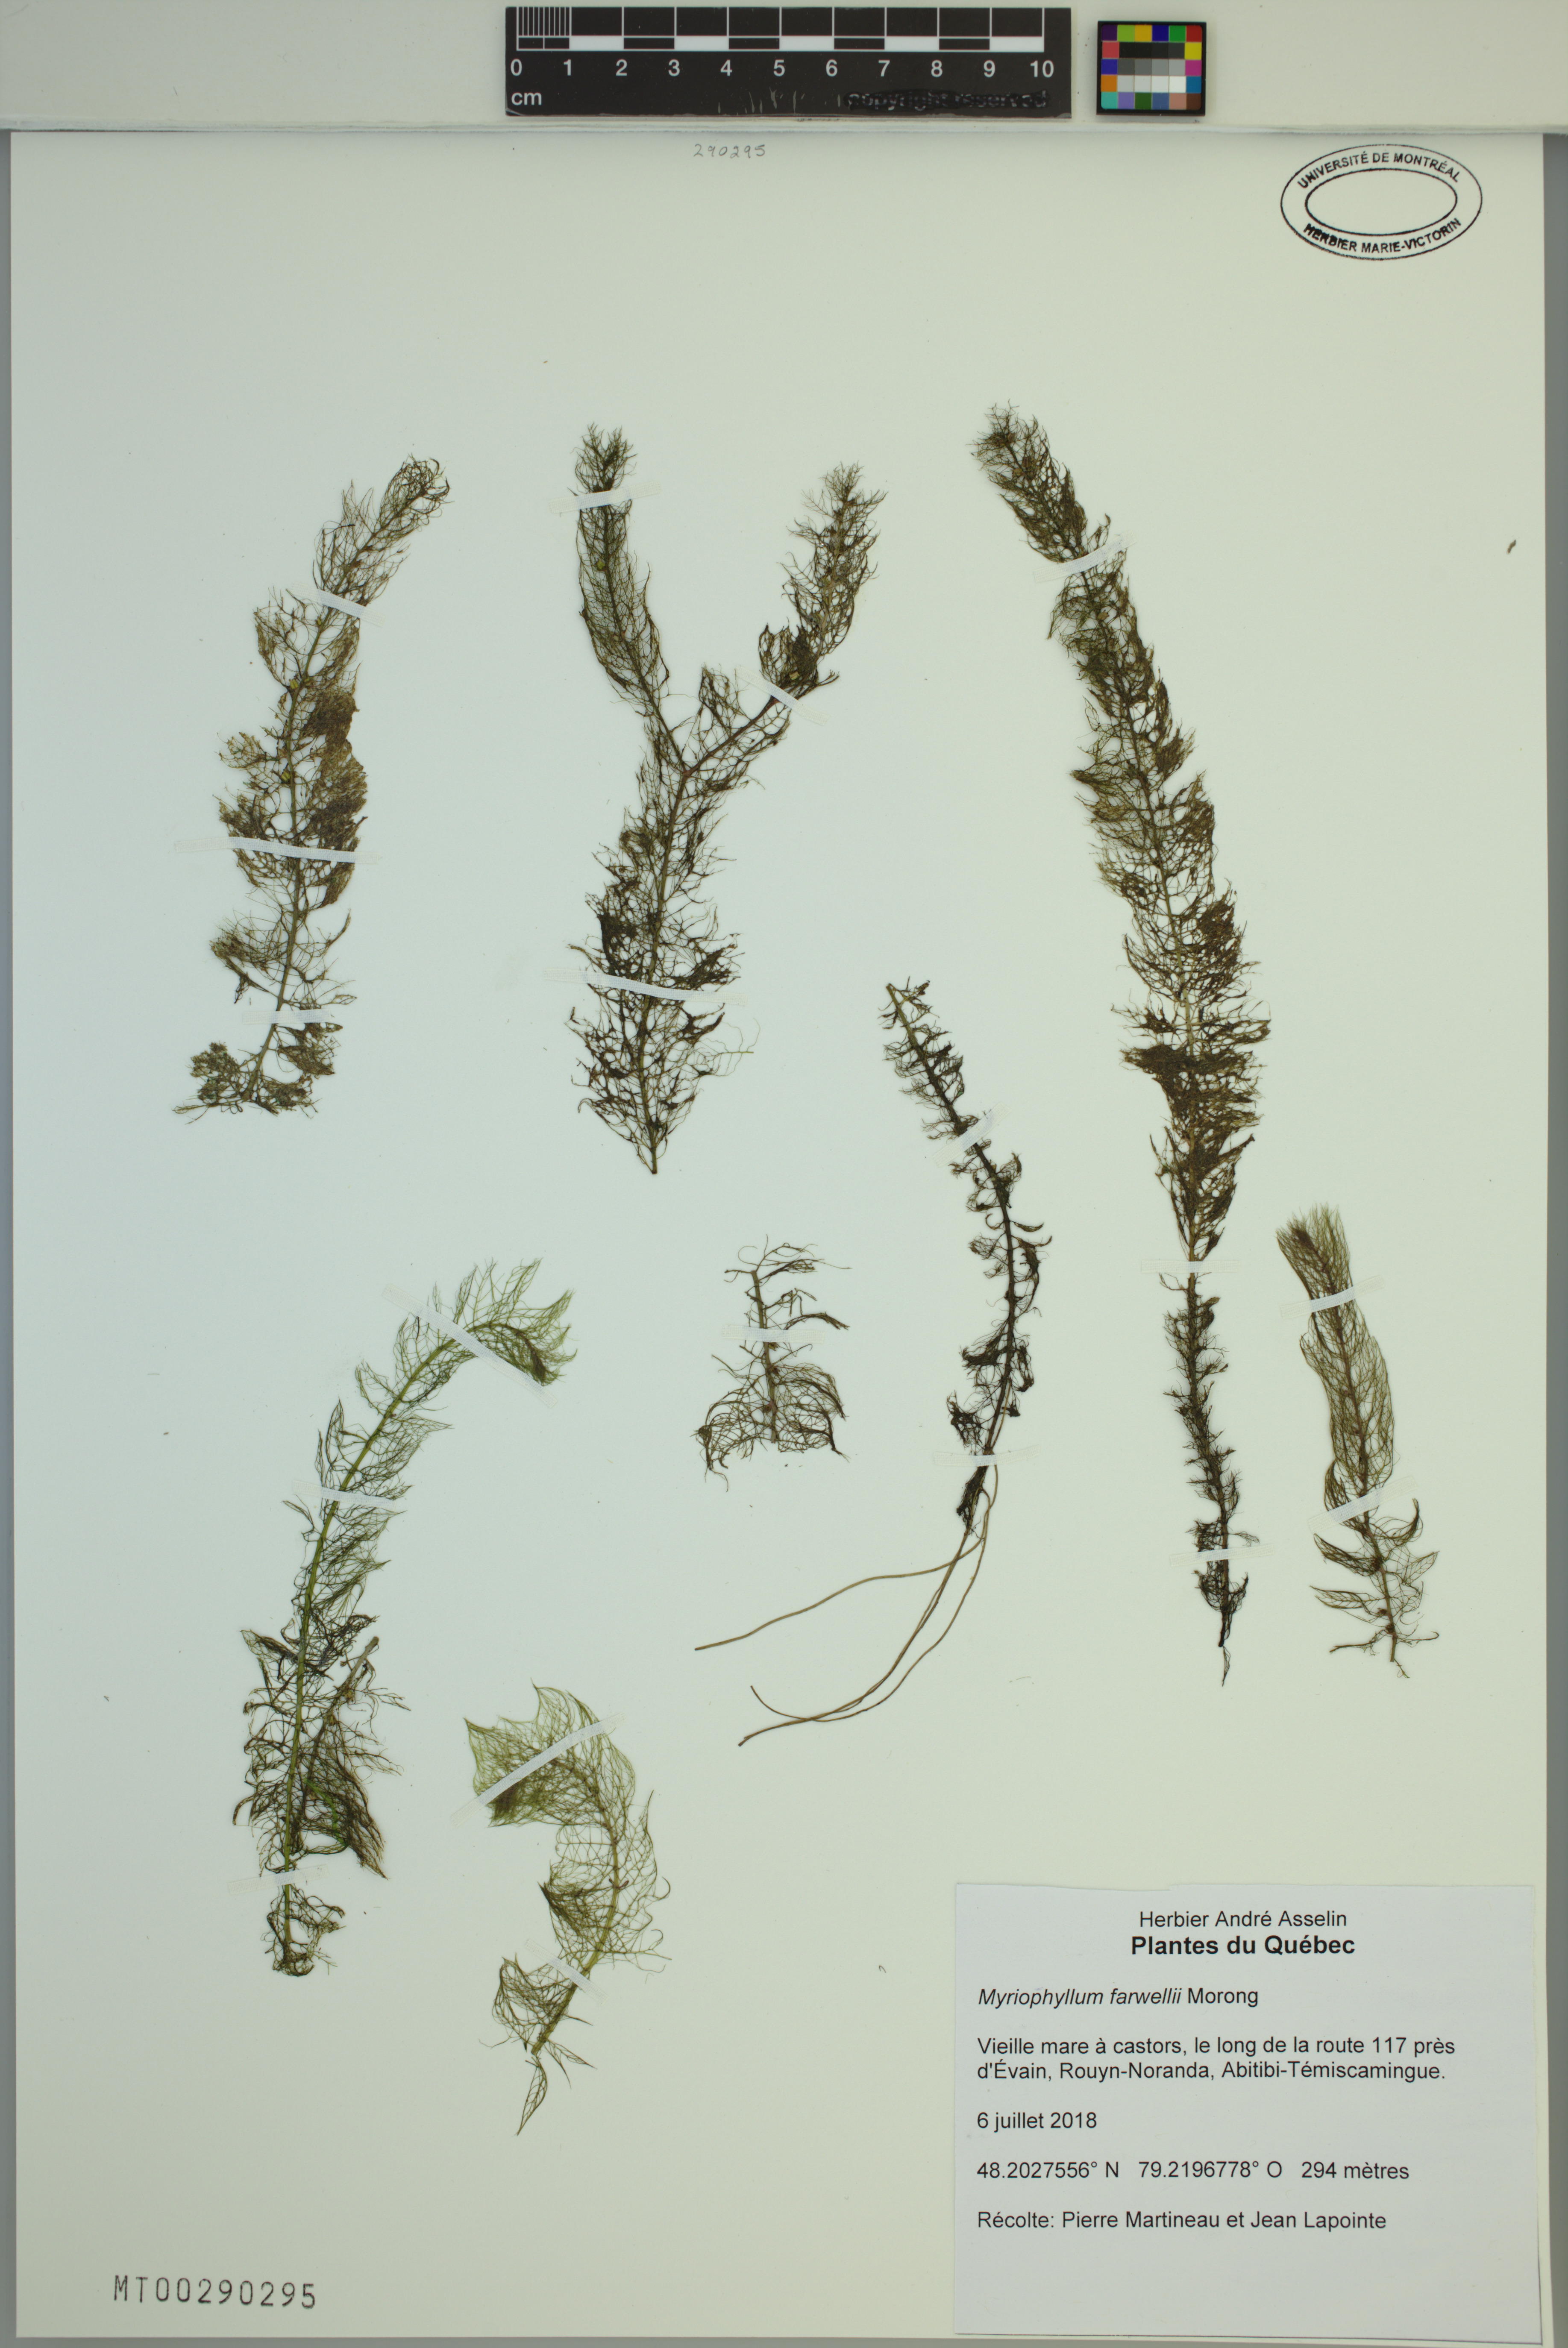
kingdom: Plantae
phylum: Tracheophyta
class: Magnoliopsida
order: Saxifragales
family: Haloragaceae
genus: Myriophyllum
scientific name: Myriophyllum farwellii
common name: Farwell's water-milfoil
